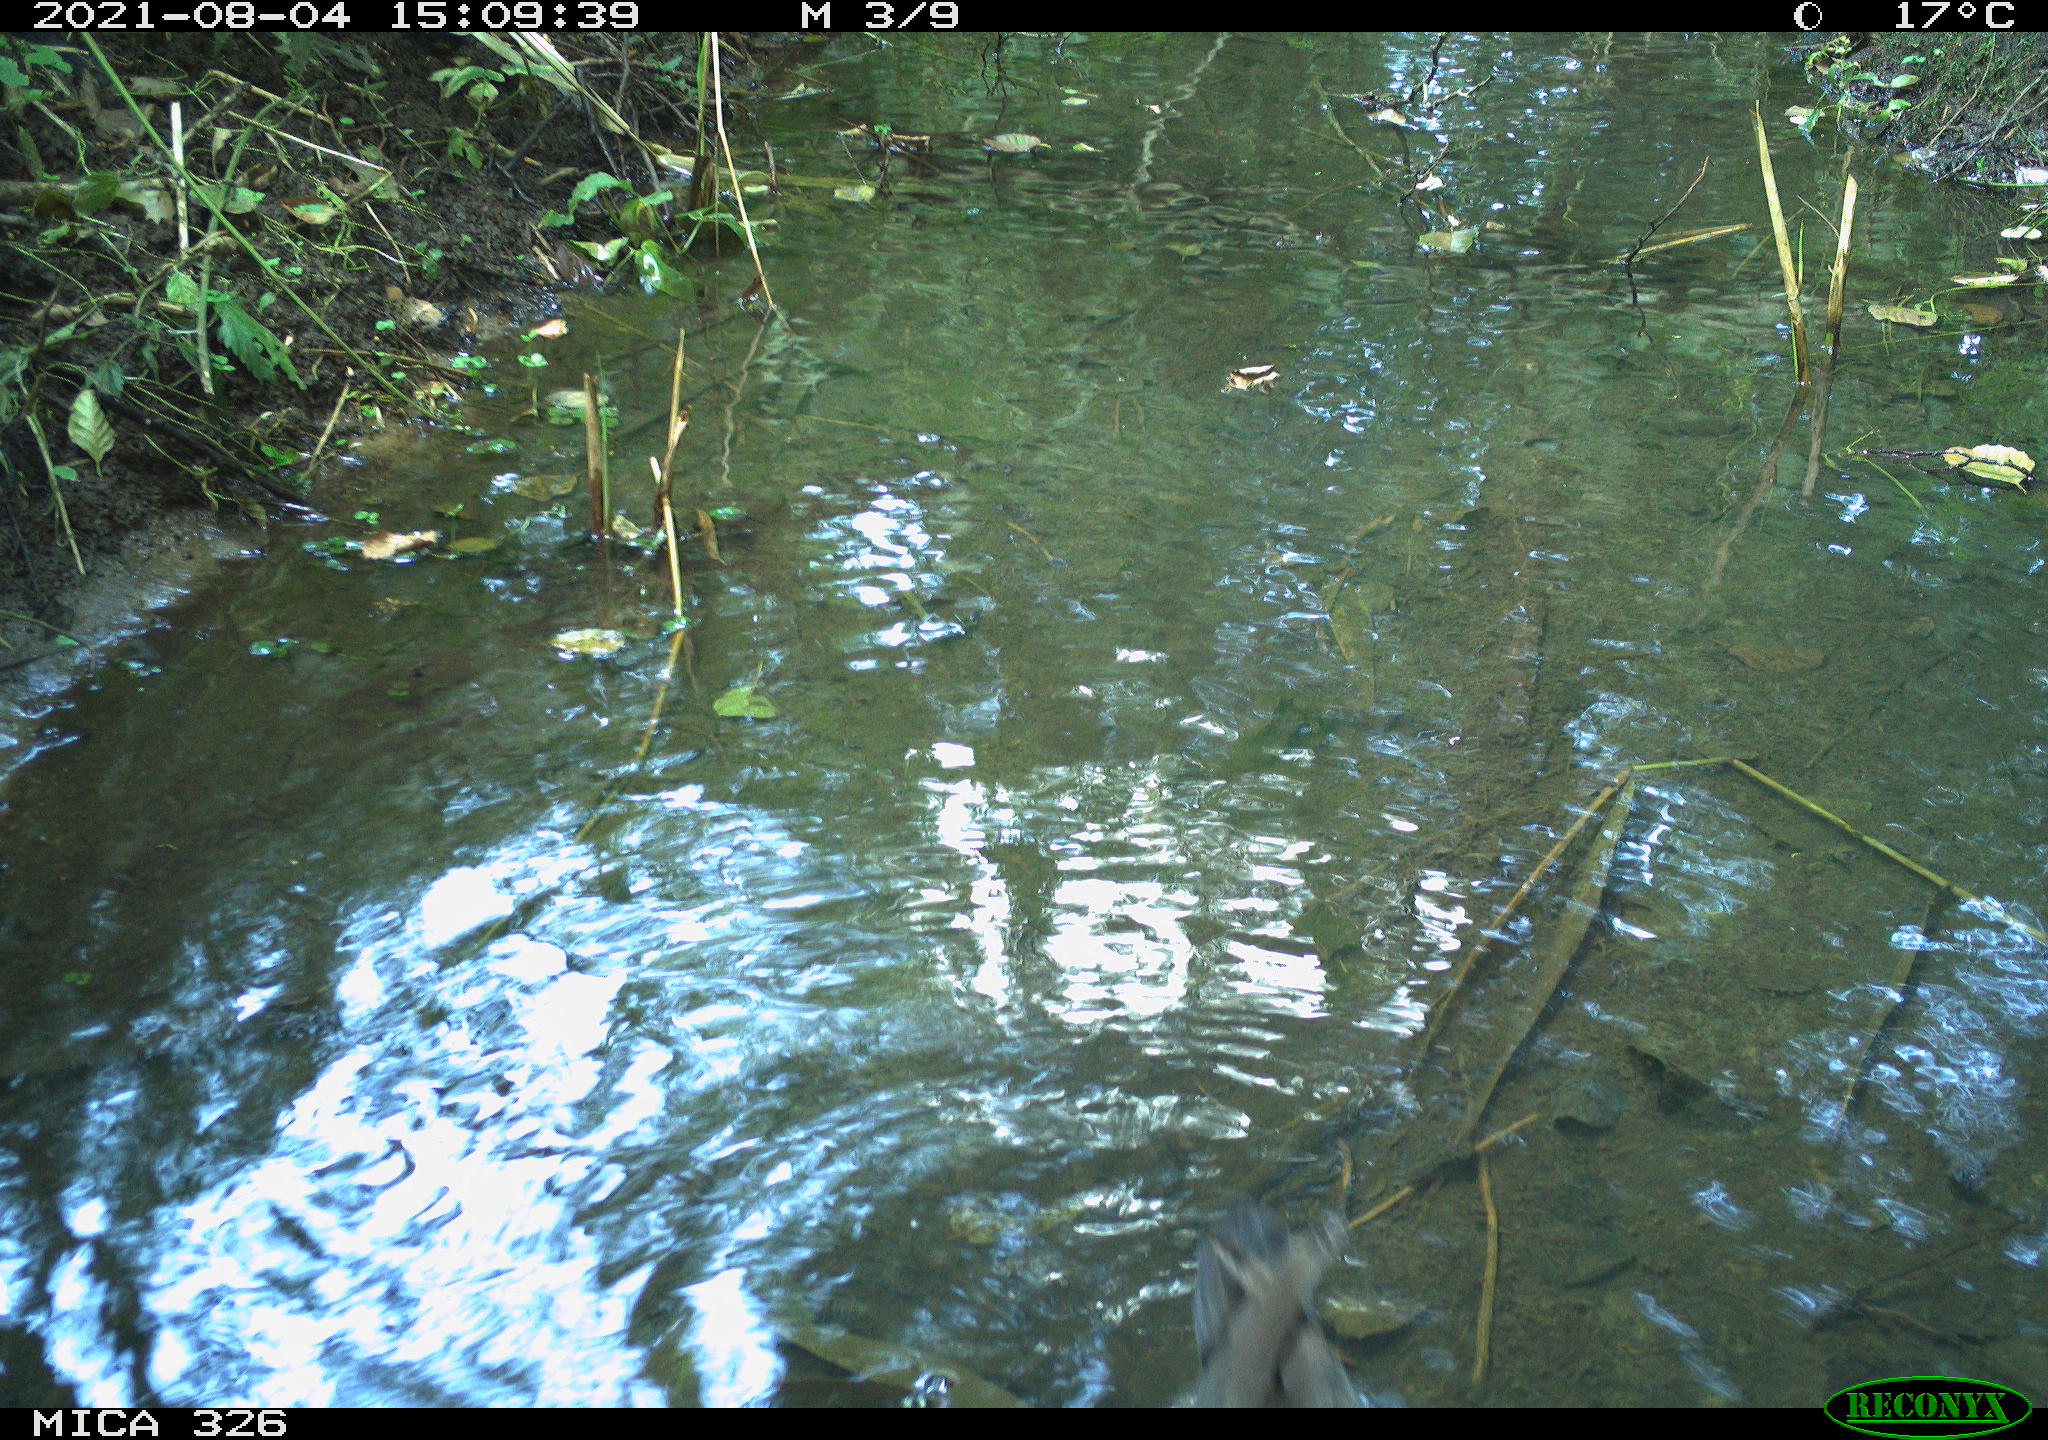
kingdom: Animalia
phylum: Chordata
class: Aves
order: Gruiformes
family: Rallidae
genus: Gallinula
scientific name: Gallinula chloropus
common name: Common moorhen
